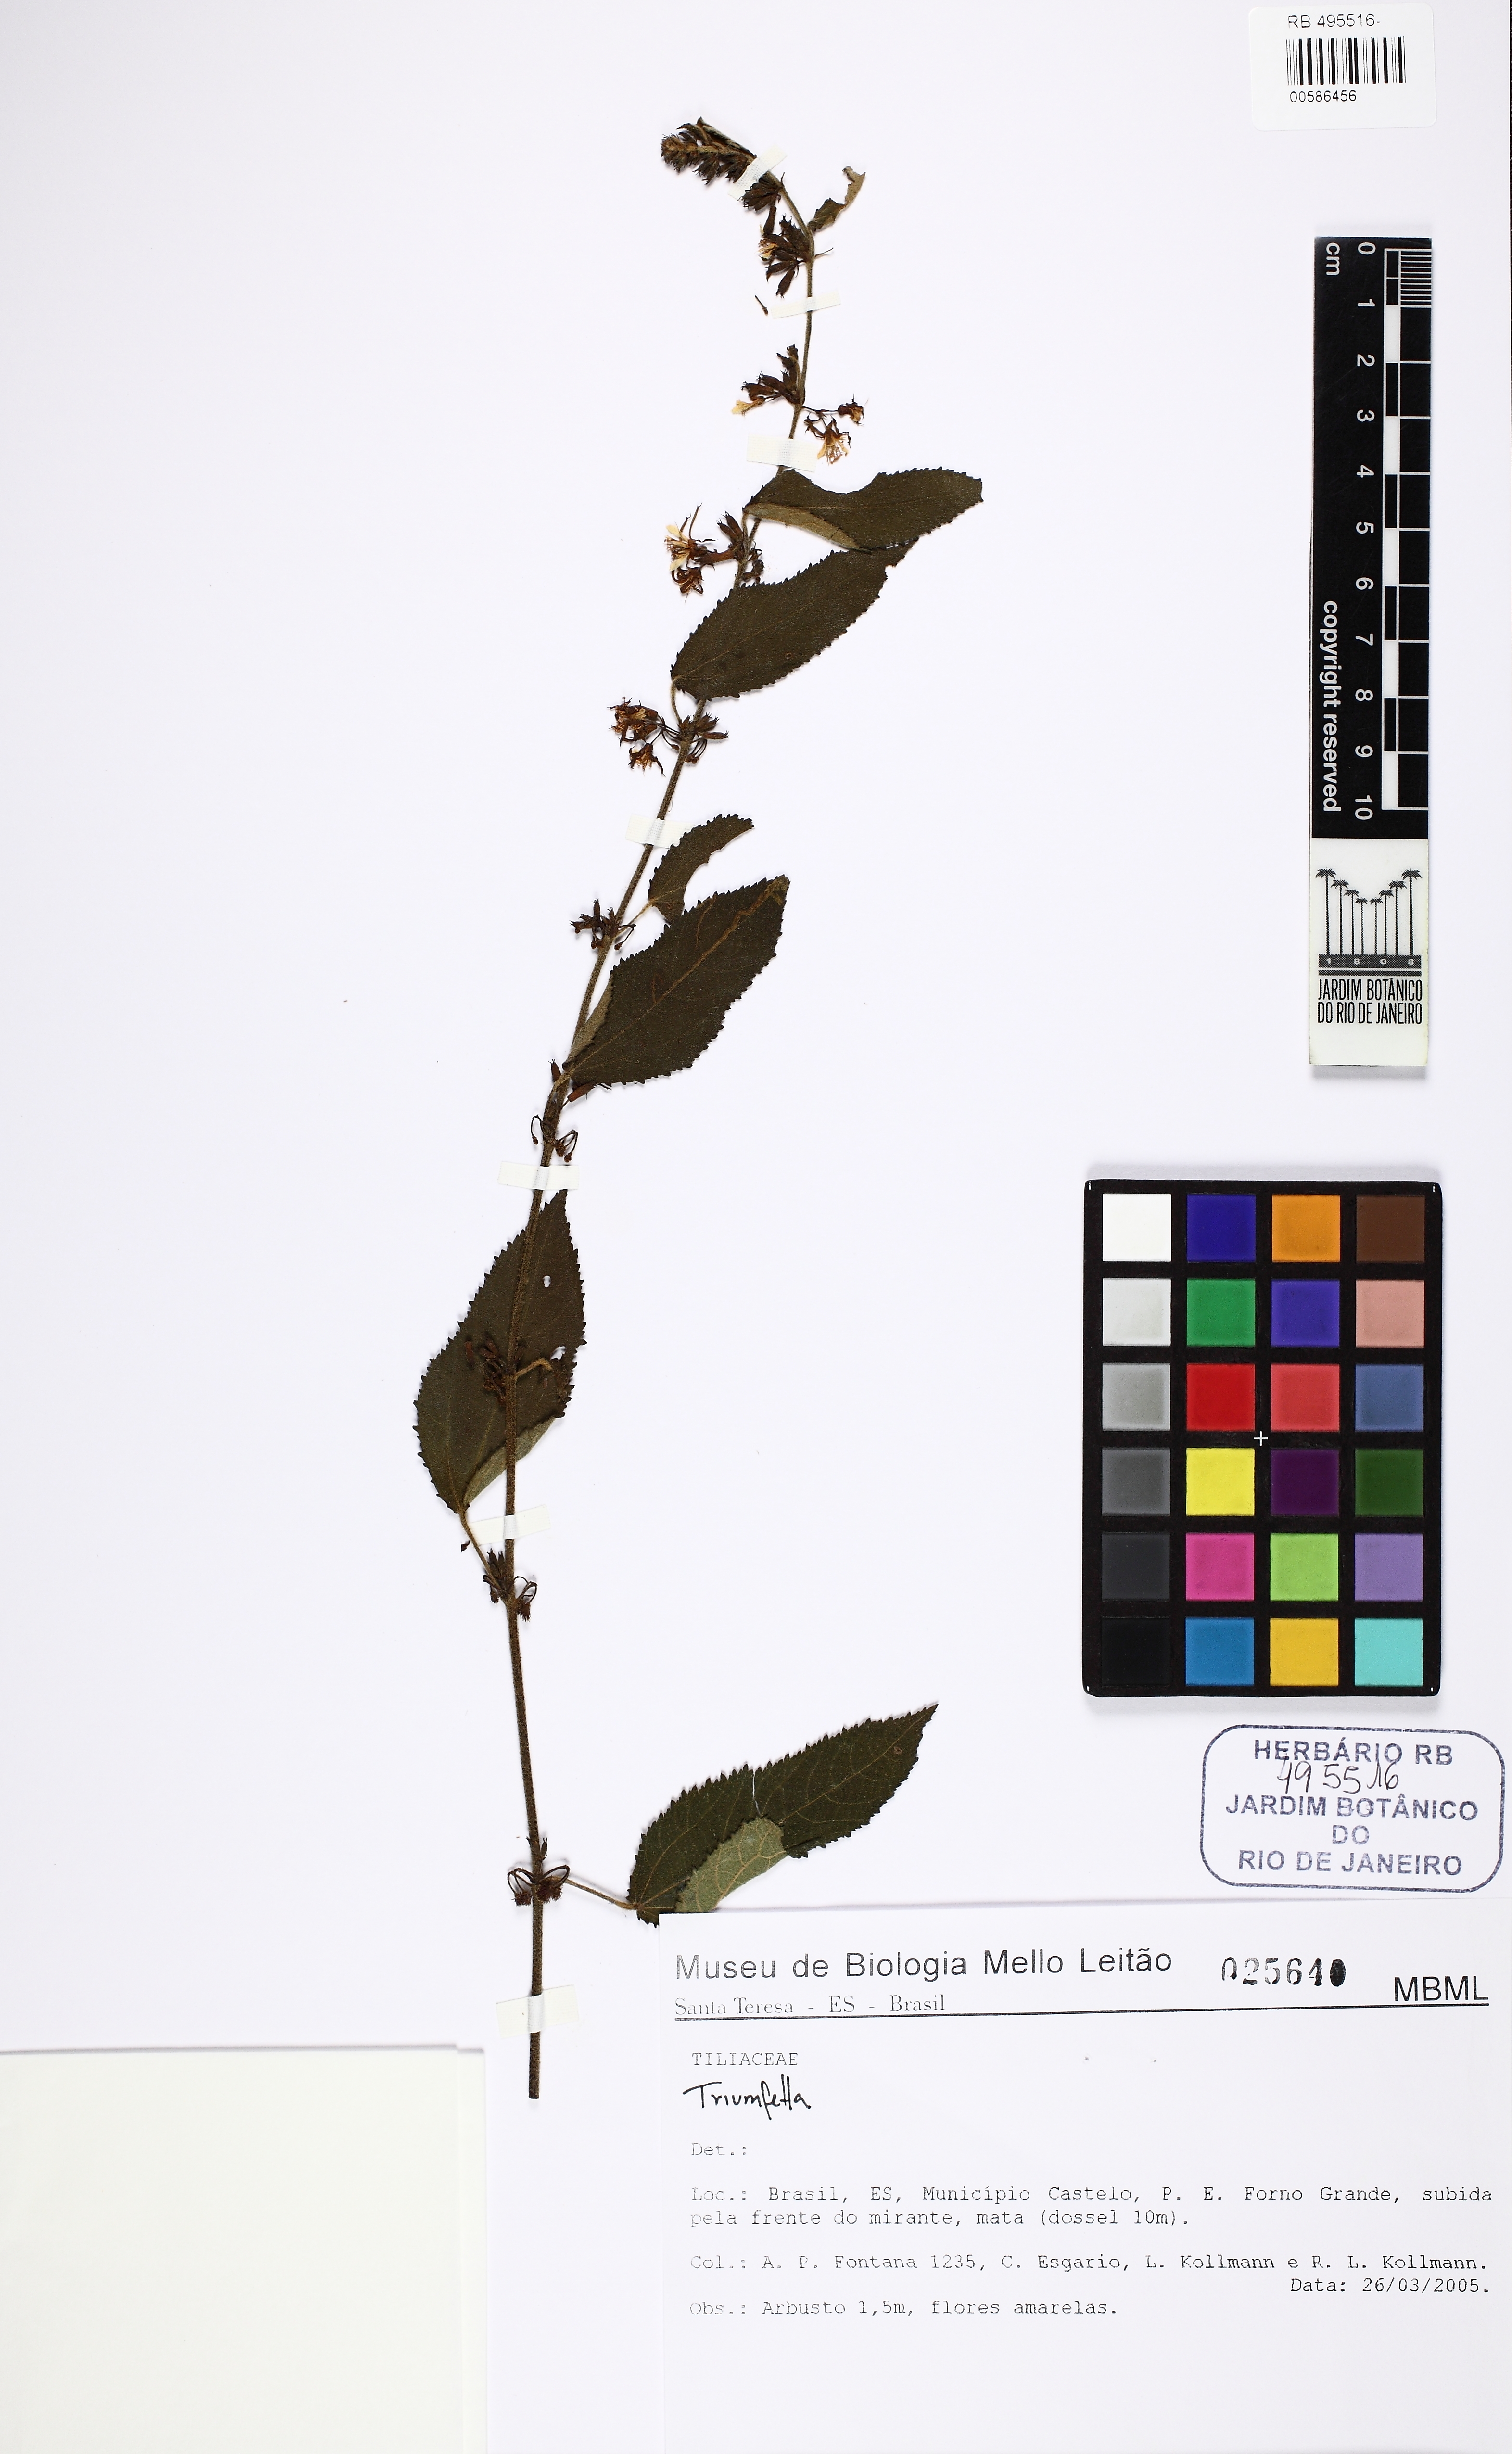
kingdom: Plantae
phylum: Tracheophyta
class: Magnoliopsida
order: Malvales
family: Malvaceae
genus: Triumfetta
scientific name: Triumfetta
